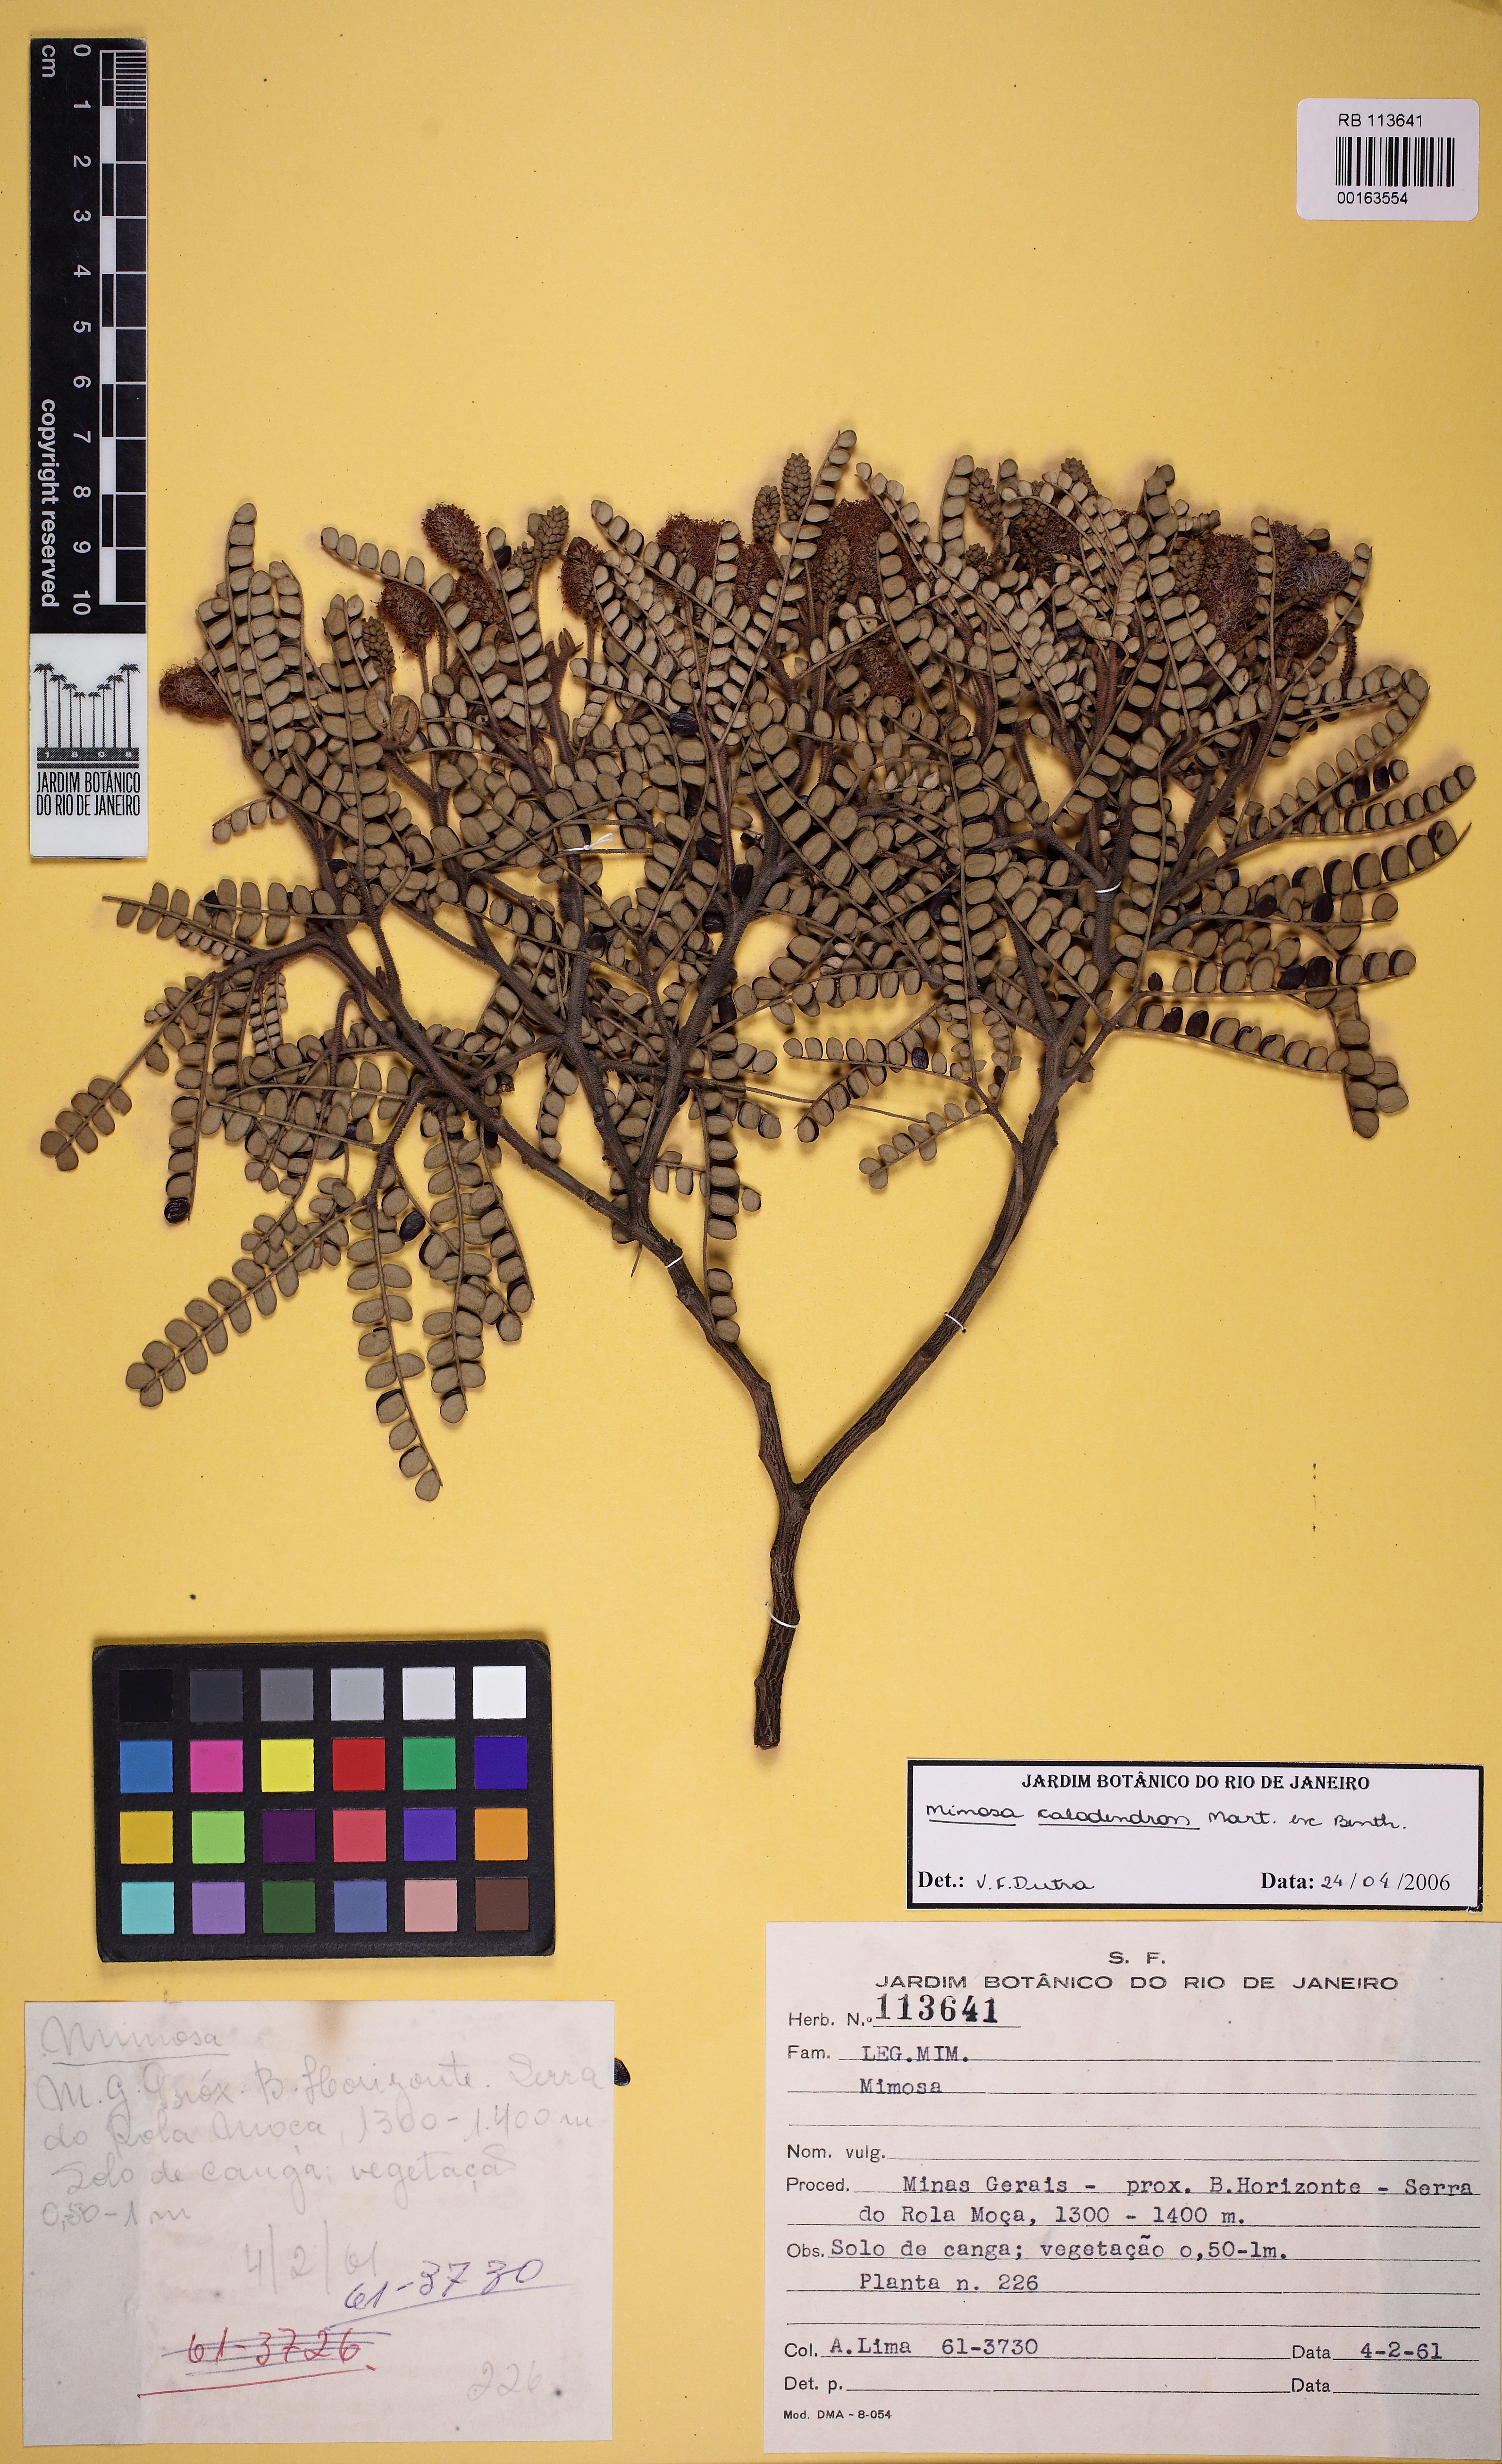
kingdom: Plantae
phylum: Tracheophyta
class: Magnoliopsida
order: Fabales
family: Fabaceae
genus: Mimosa
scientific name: Mimosa calodendron
